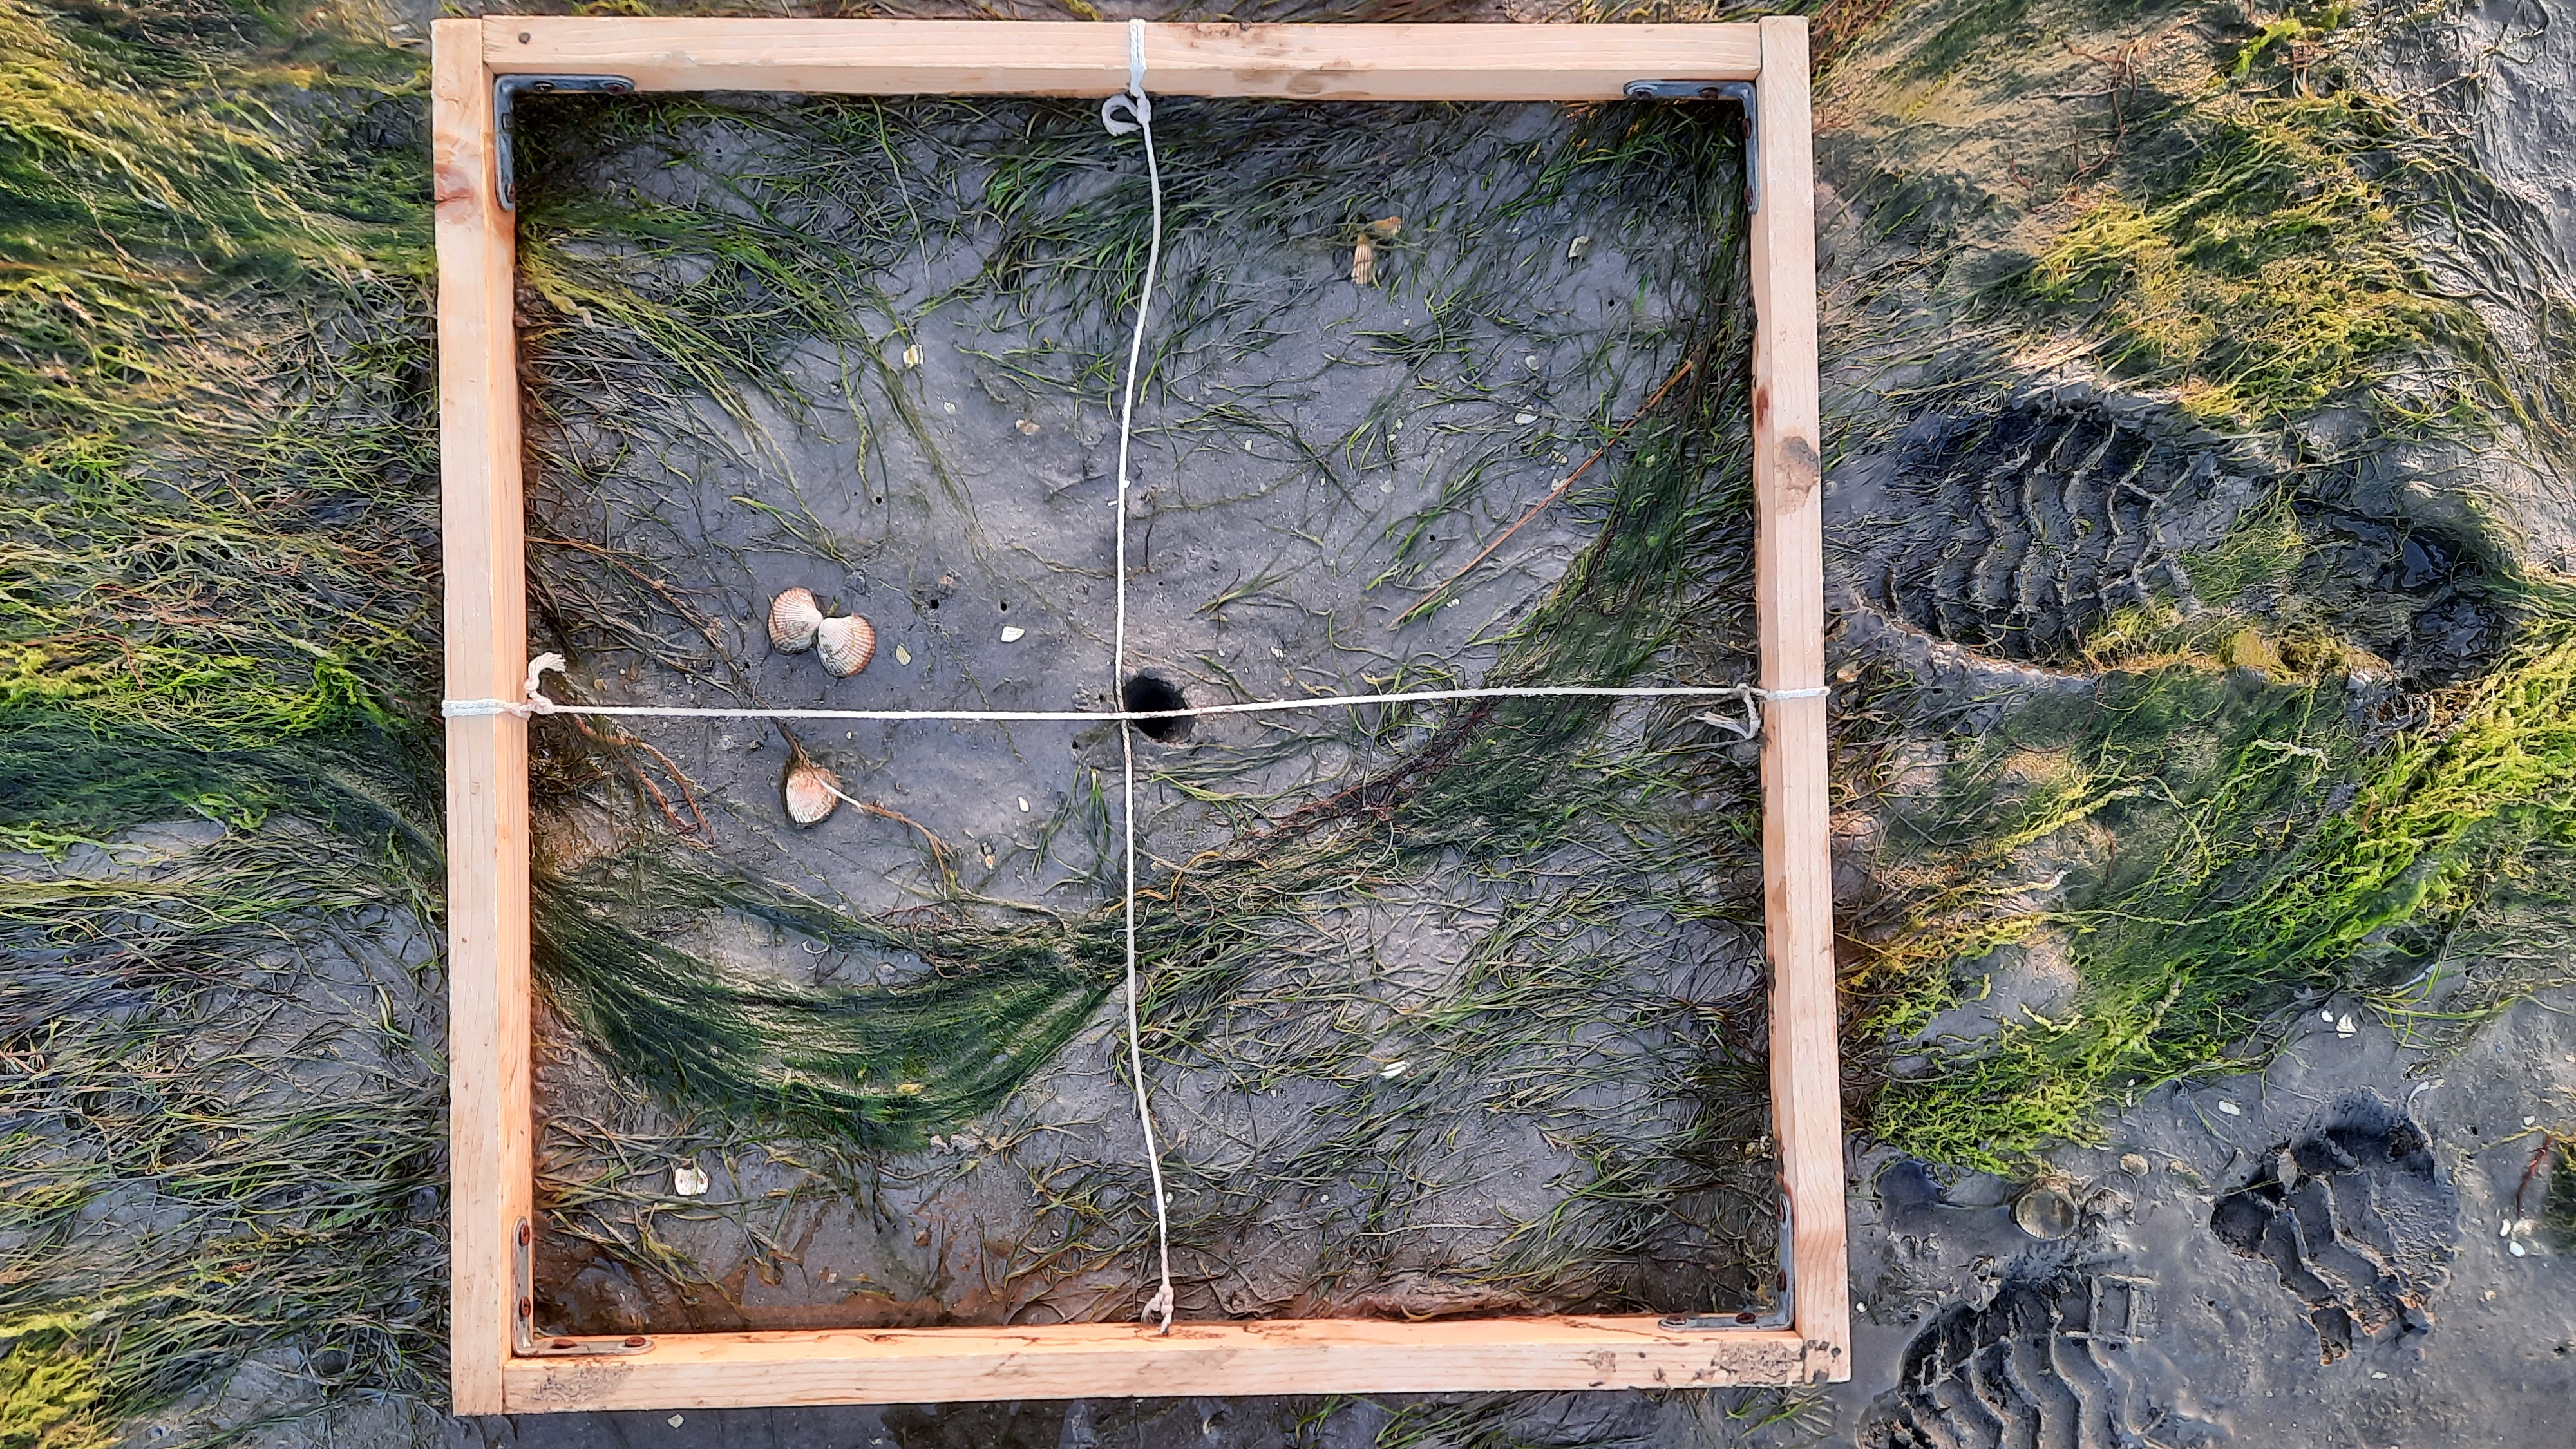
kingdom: Plantae
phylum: Tracheophyta
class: Liliopsida
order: Alismatales
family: Zosteraceae
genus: Zostera
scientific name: Zostera noltii
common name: Dwarf eelgrass
